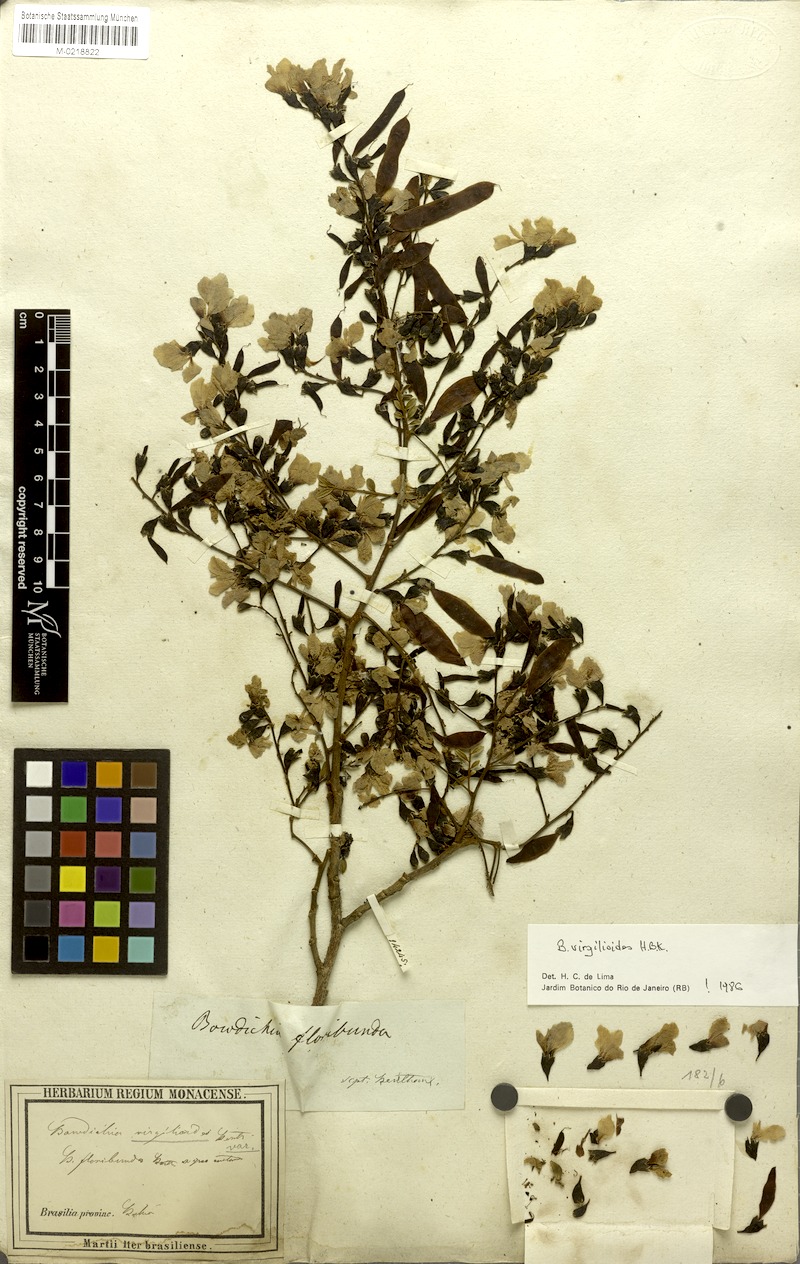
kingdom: Plantae
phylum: Tracheophyta
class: Magnoliopsida
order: Fabales
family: Fabaceae
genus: Bowdichia
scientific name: Bowdichia virgilioides
